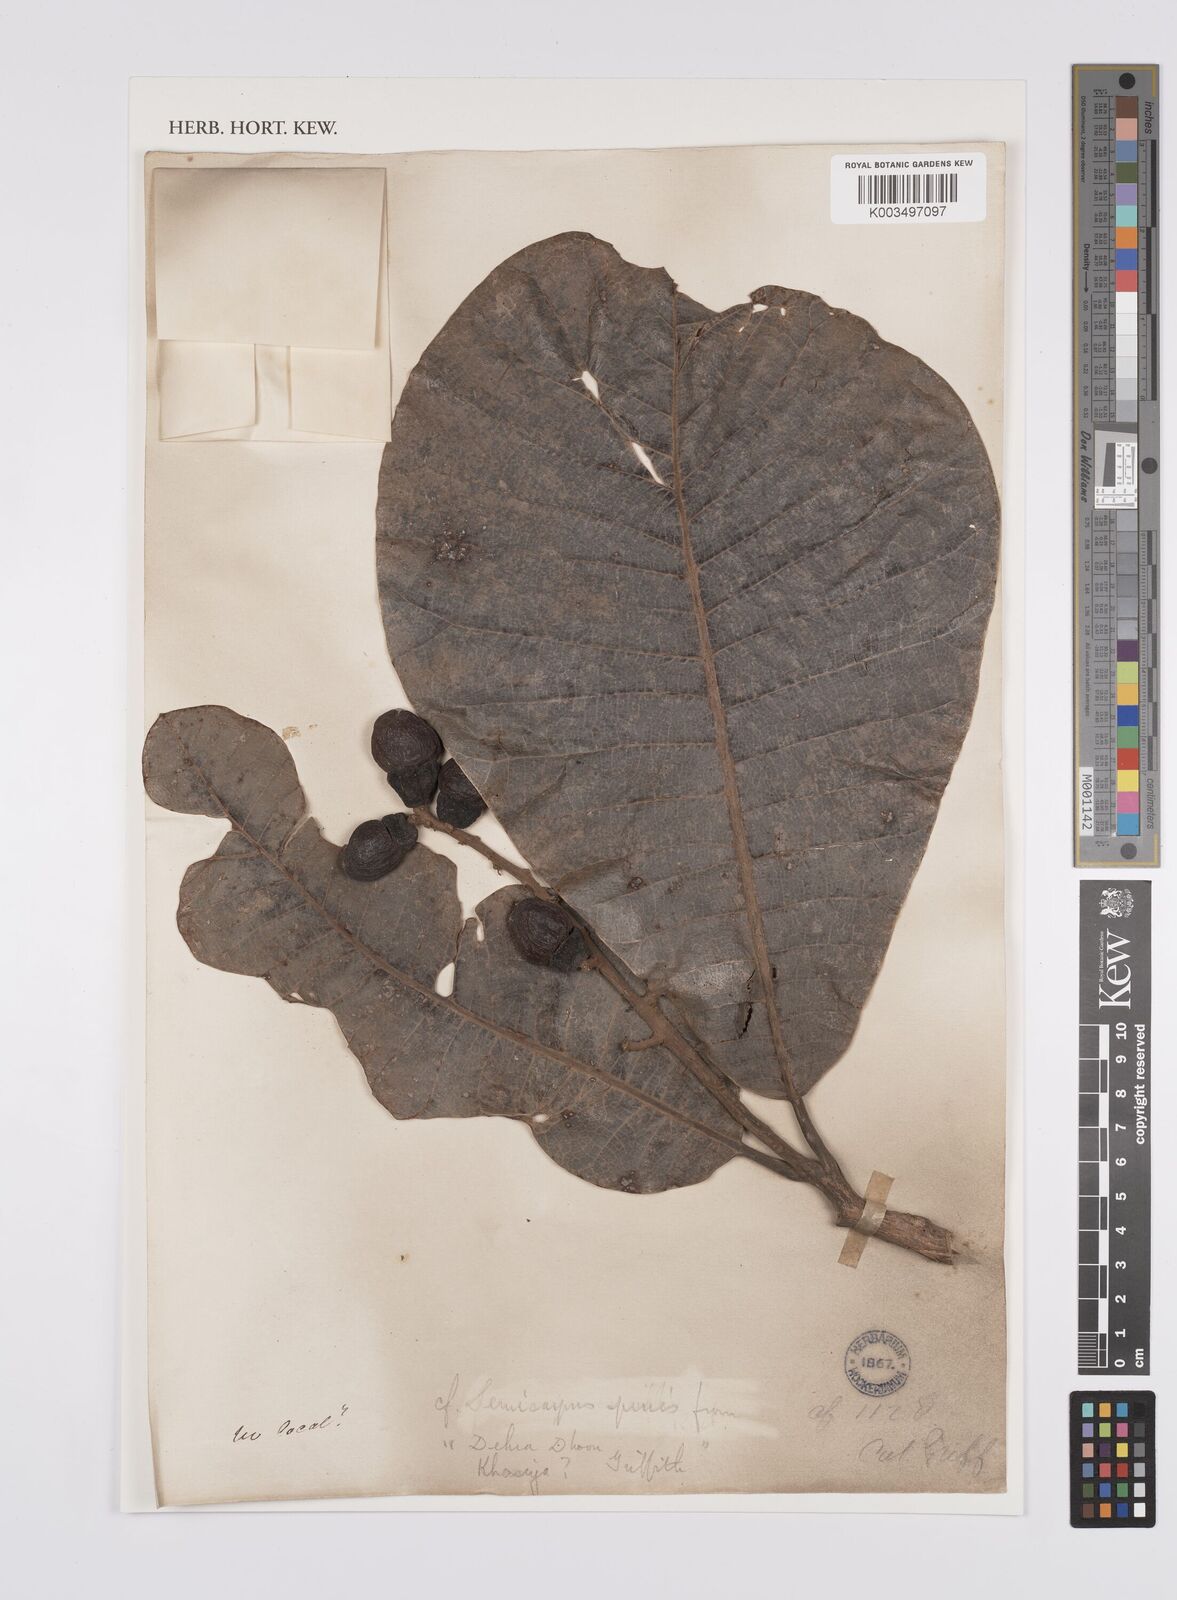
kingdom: Plantae
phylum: Tracheophyta
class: Magnoliopsida
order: Sapindales
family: Anacardiaceae
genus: Semecarpus
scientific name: Semecarpus anacardium
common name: Marking nut-tree
